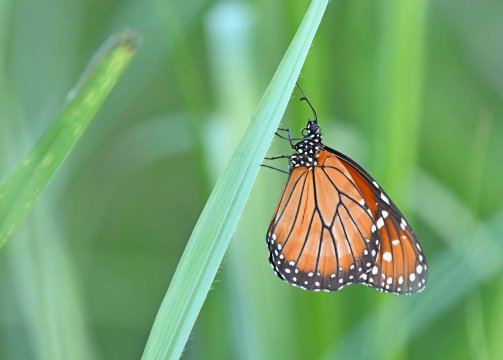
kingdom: Animalia
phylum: Arthropoda
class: Insecta
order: Lepidoptera
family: Nymphalidae
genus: Danaus
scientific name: Danaus eresimus
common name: Soldier
